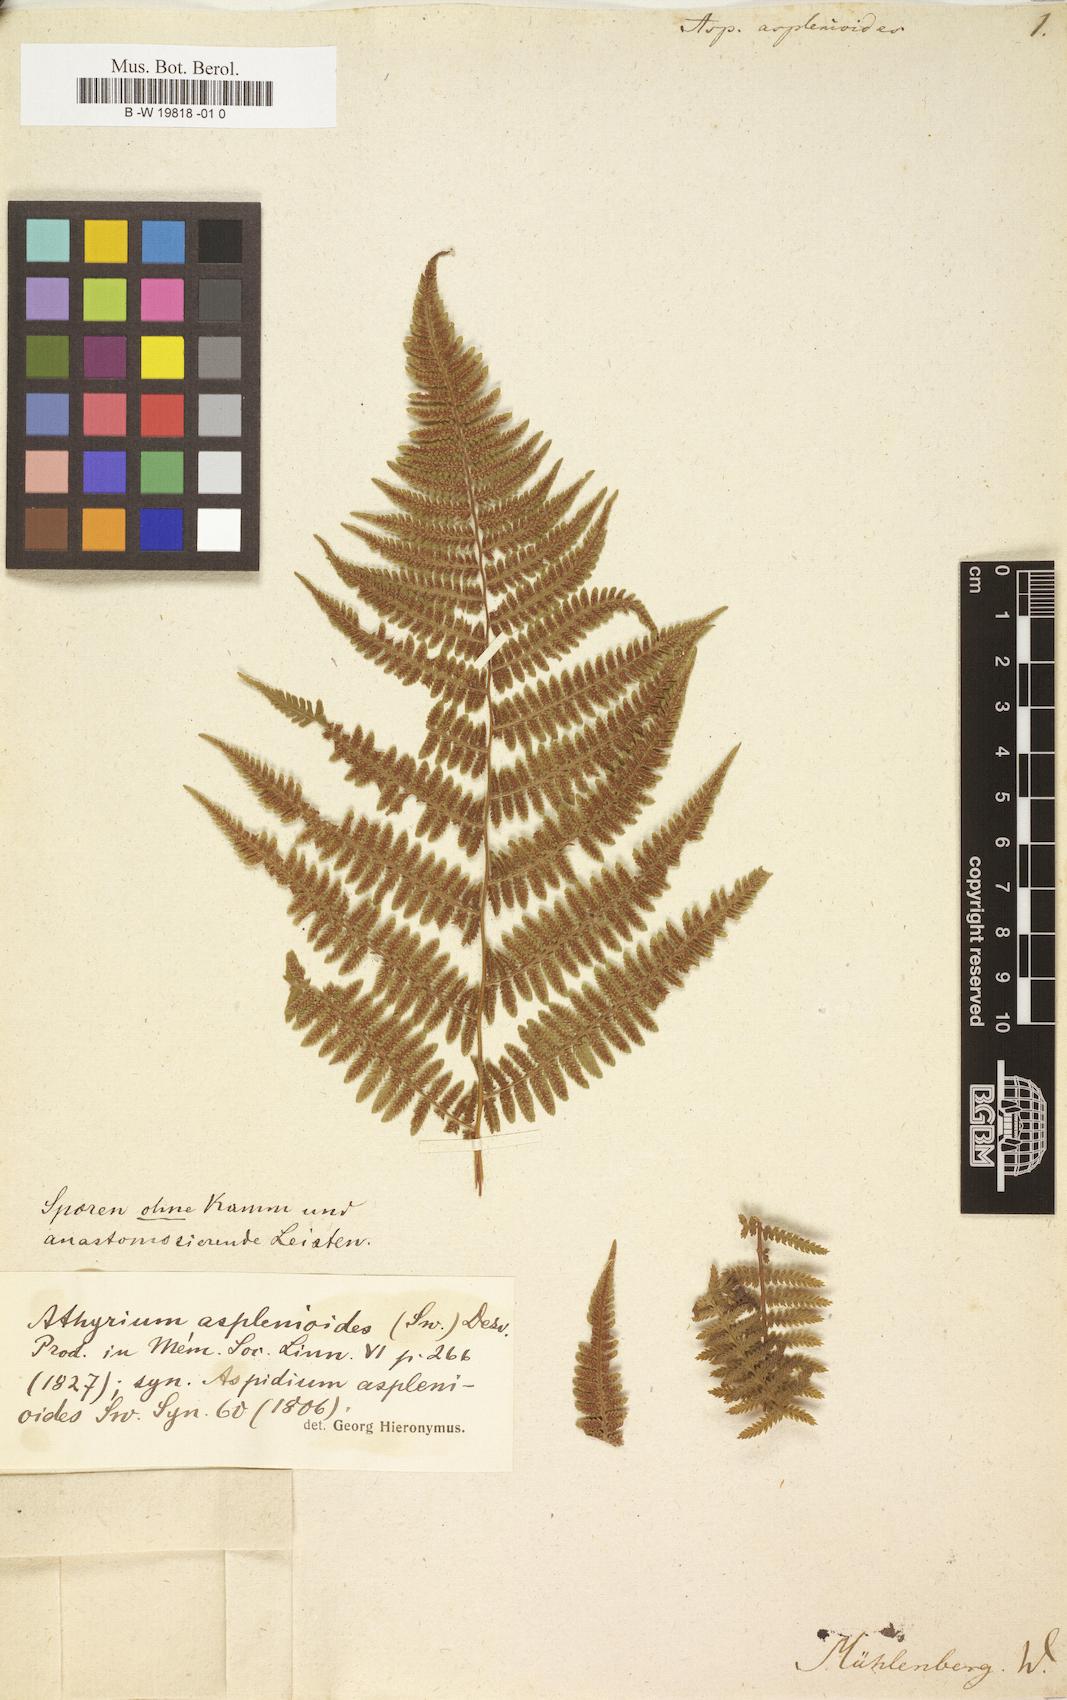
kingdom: Plantae
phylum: Tracheophyta
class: Polypodiopsida
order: Polypodiales
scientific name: Polypodiales
